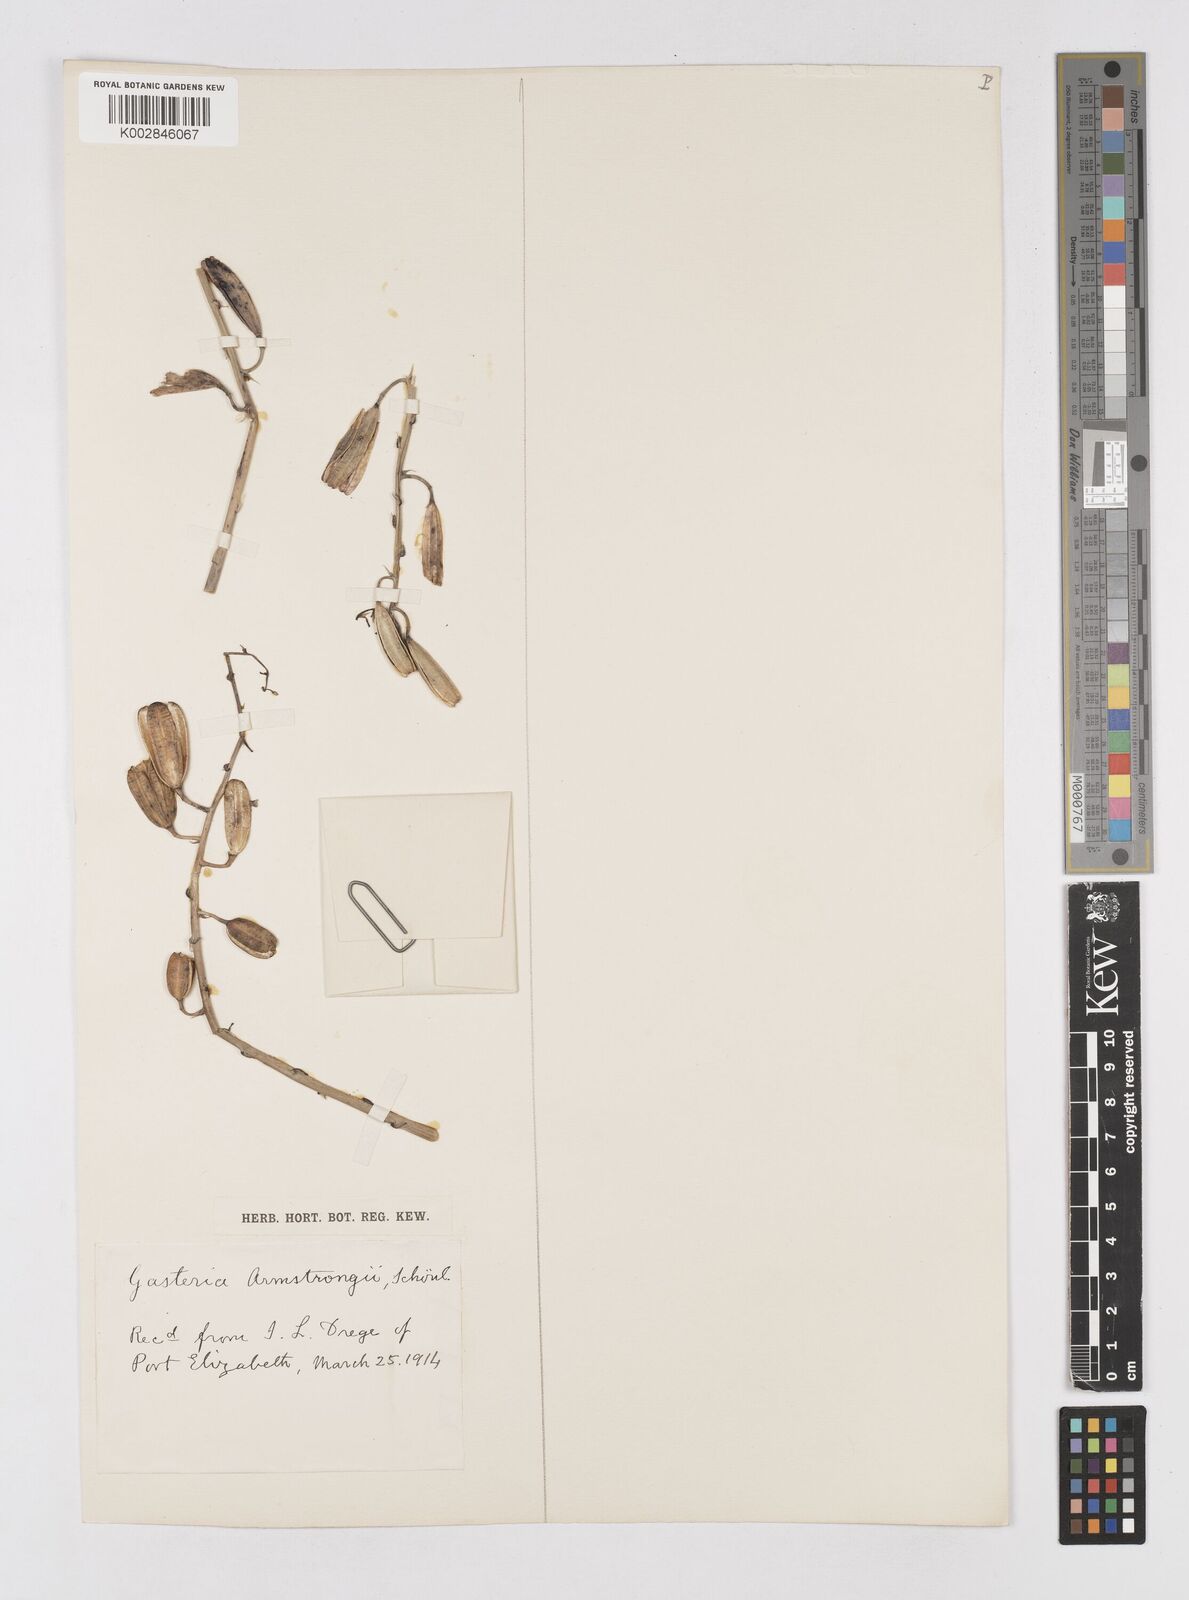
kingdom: Plantae
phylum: Tracheophyta
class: Liliopsida
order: Asparagales
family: Asphodelaceae
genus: Gasteria
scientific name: Gasteria nitida
